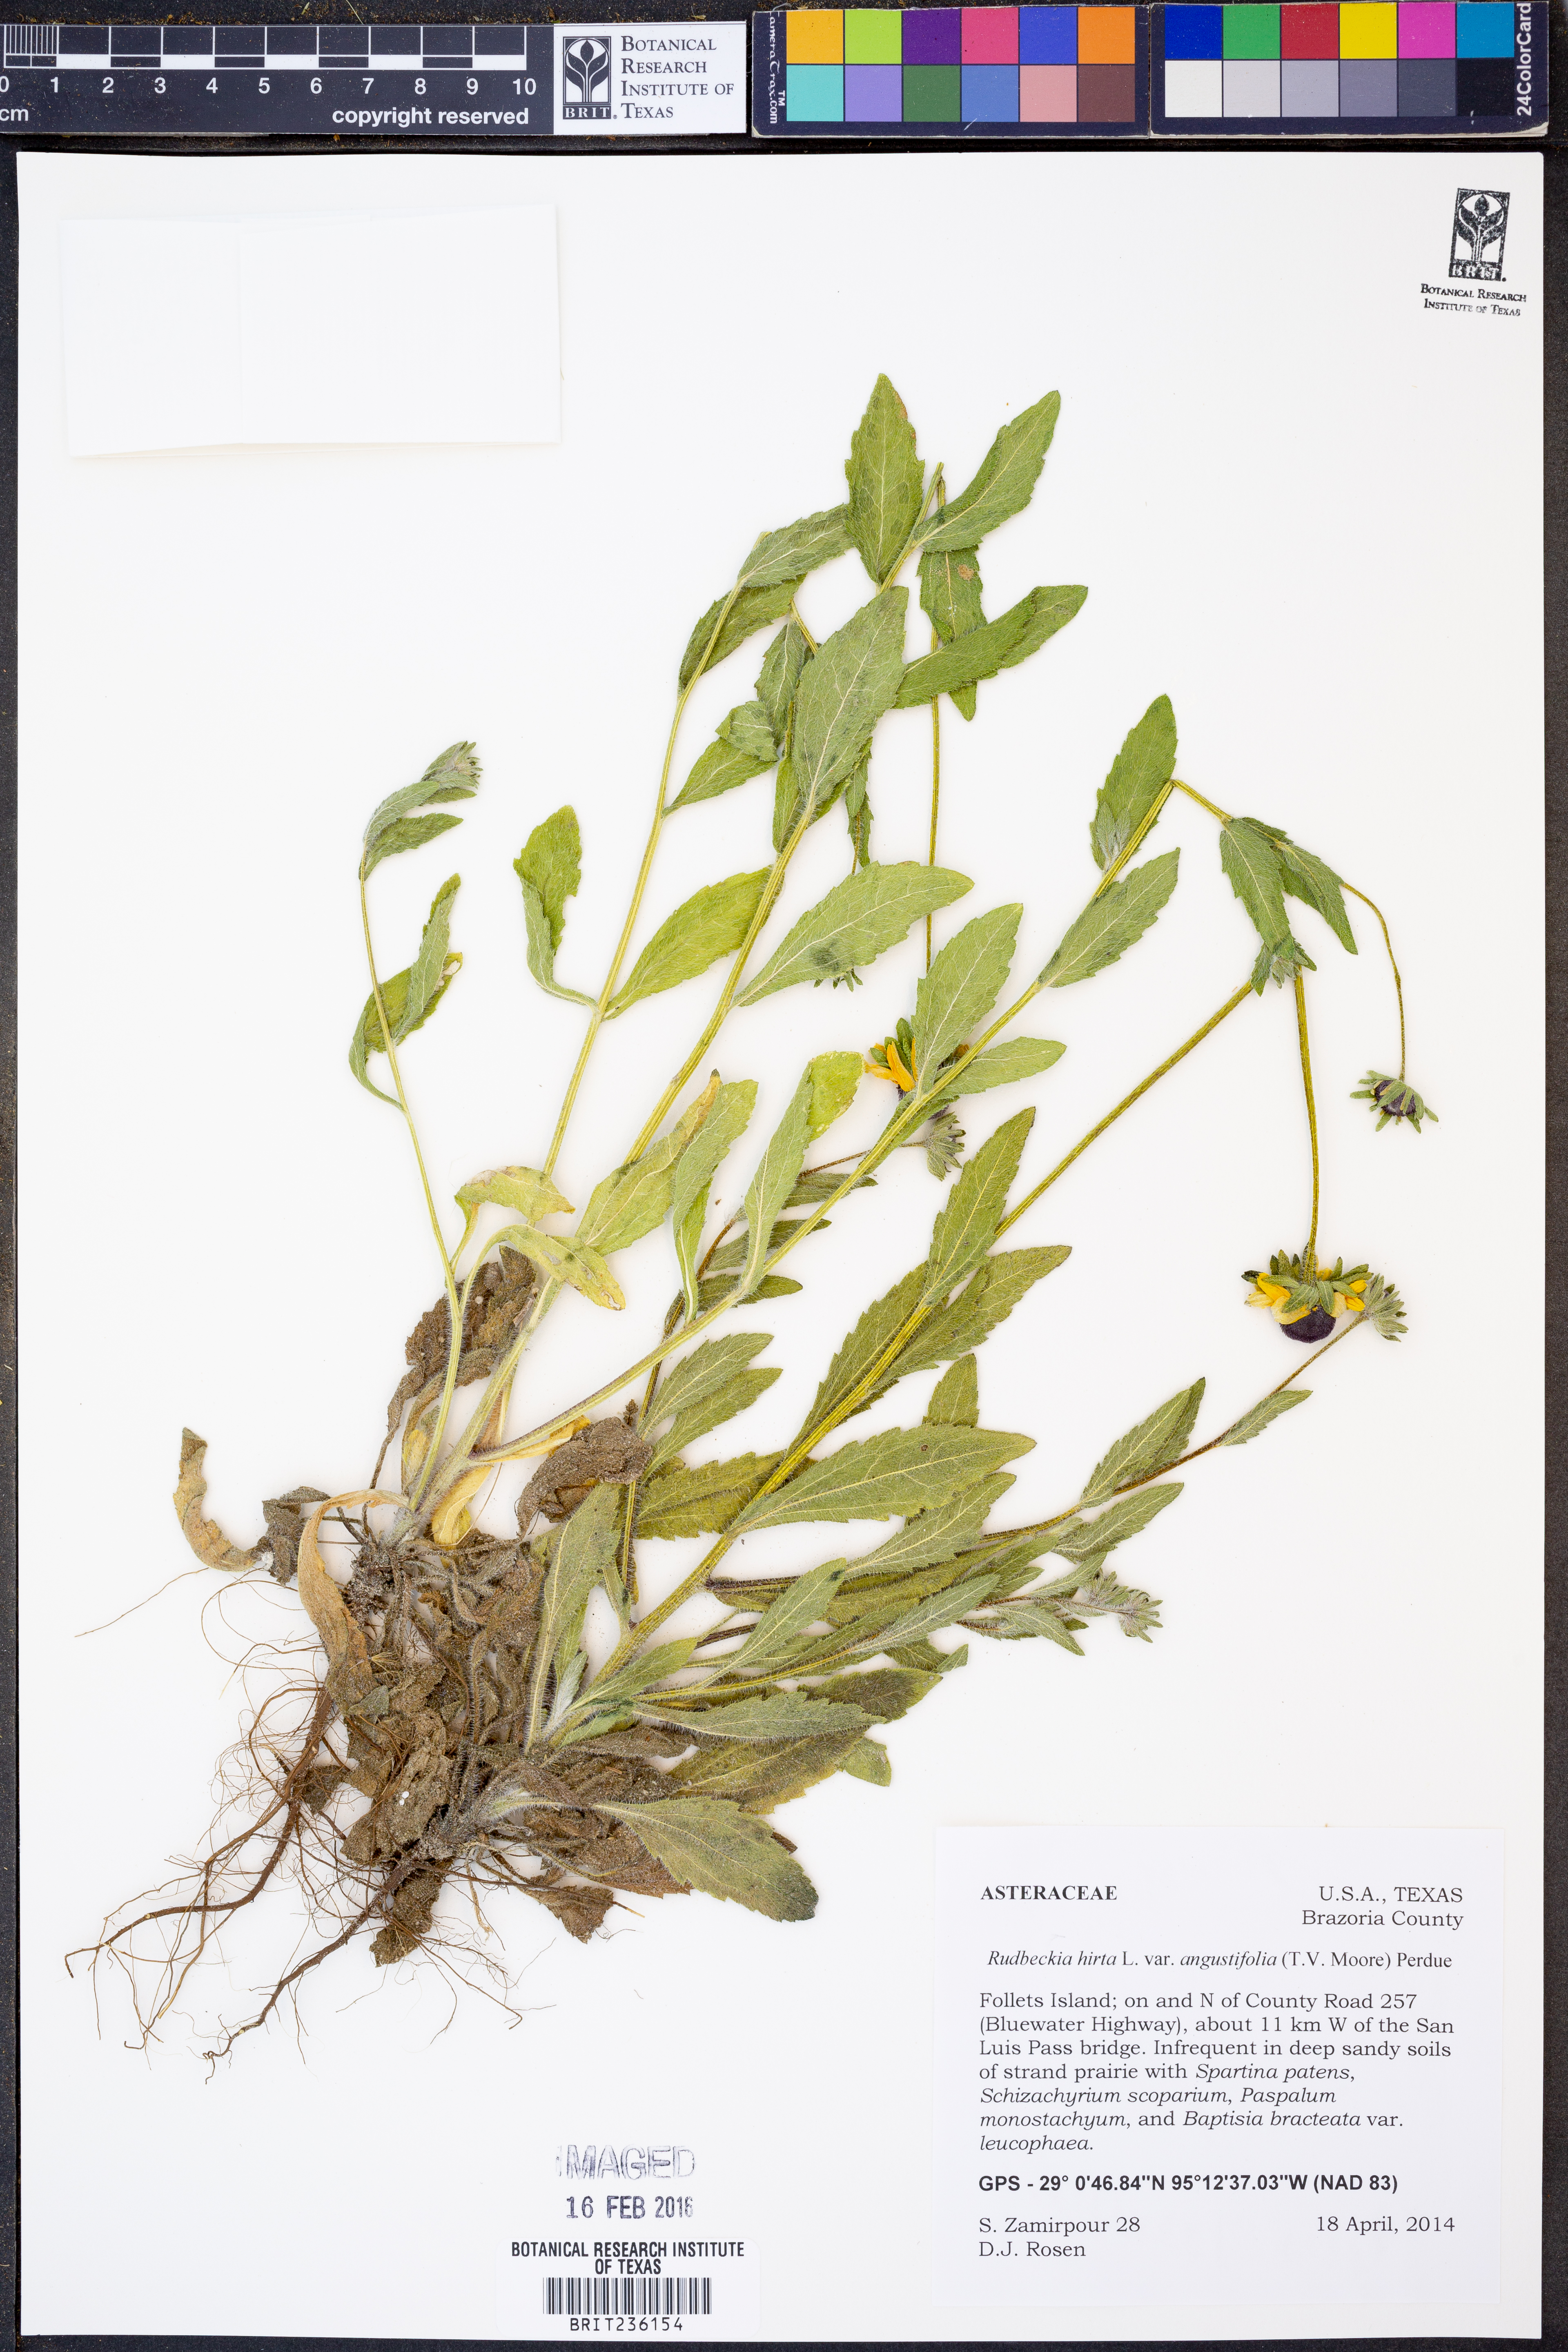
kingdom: Plantae
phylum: Tracheophyta
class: Magnoliopsida
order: Asterales
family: Asteraceae
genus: Rudbeckia
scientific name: Rudbeckia hirta
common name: Black-eyed-susan
